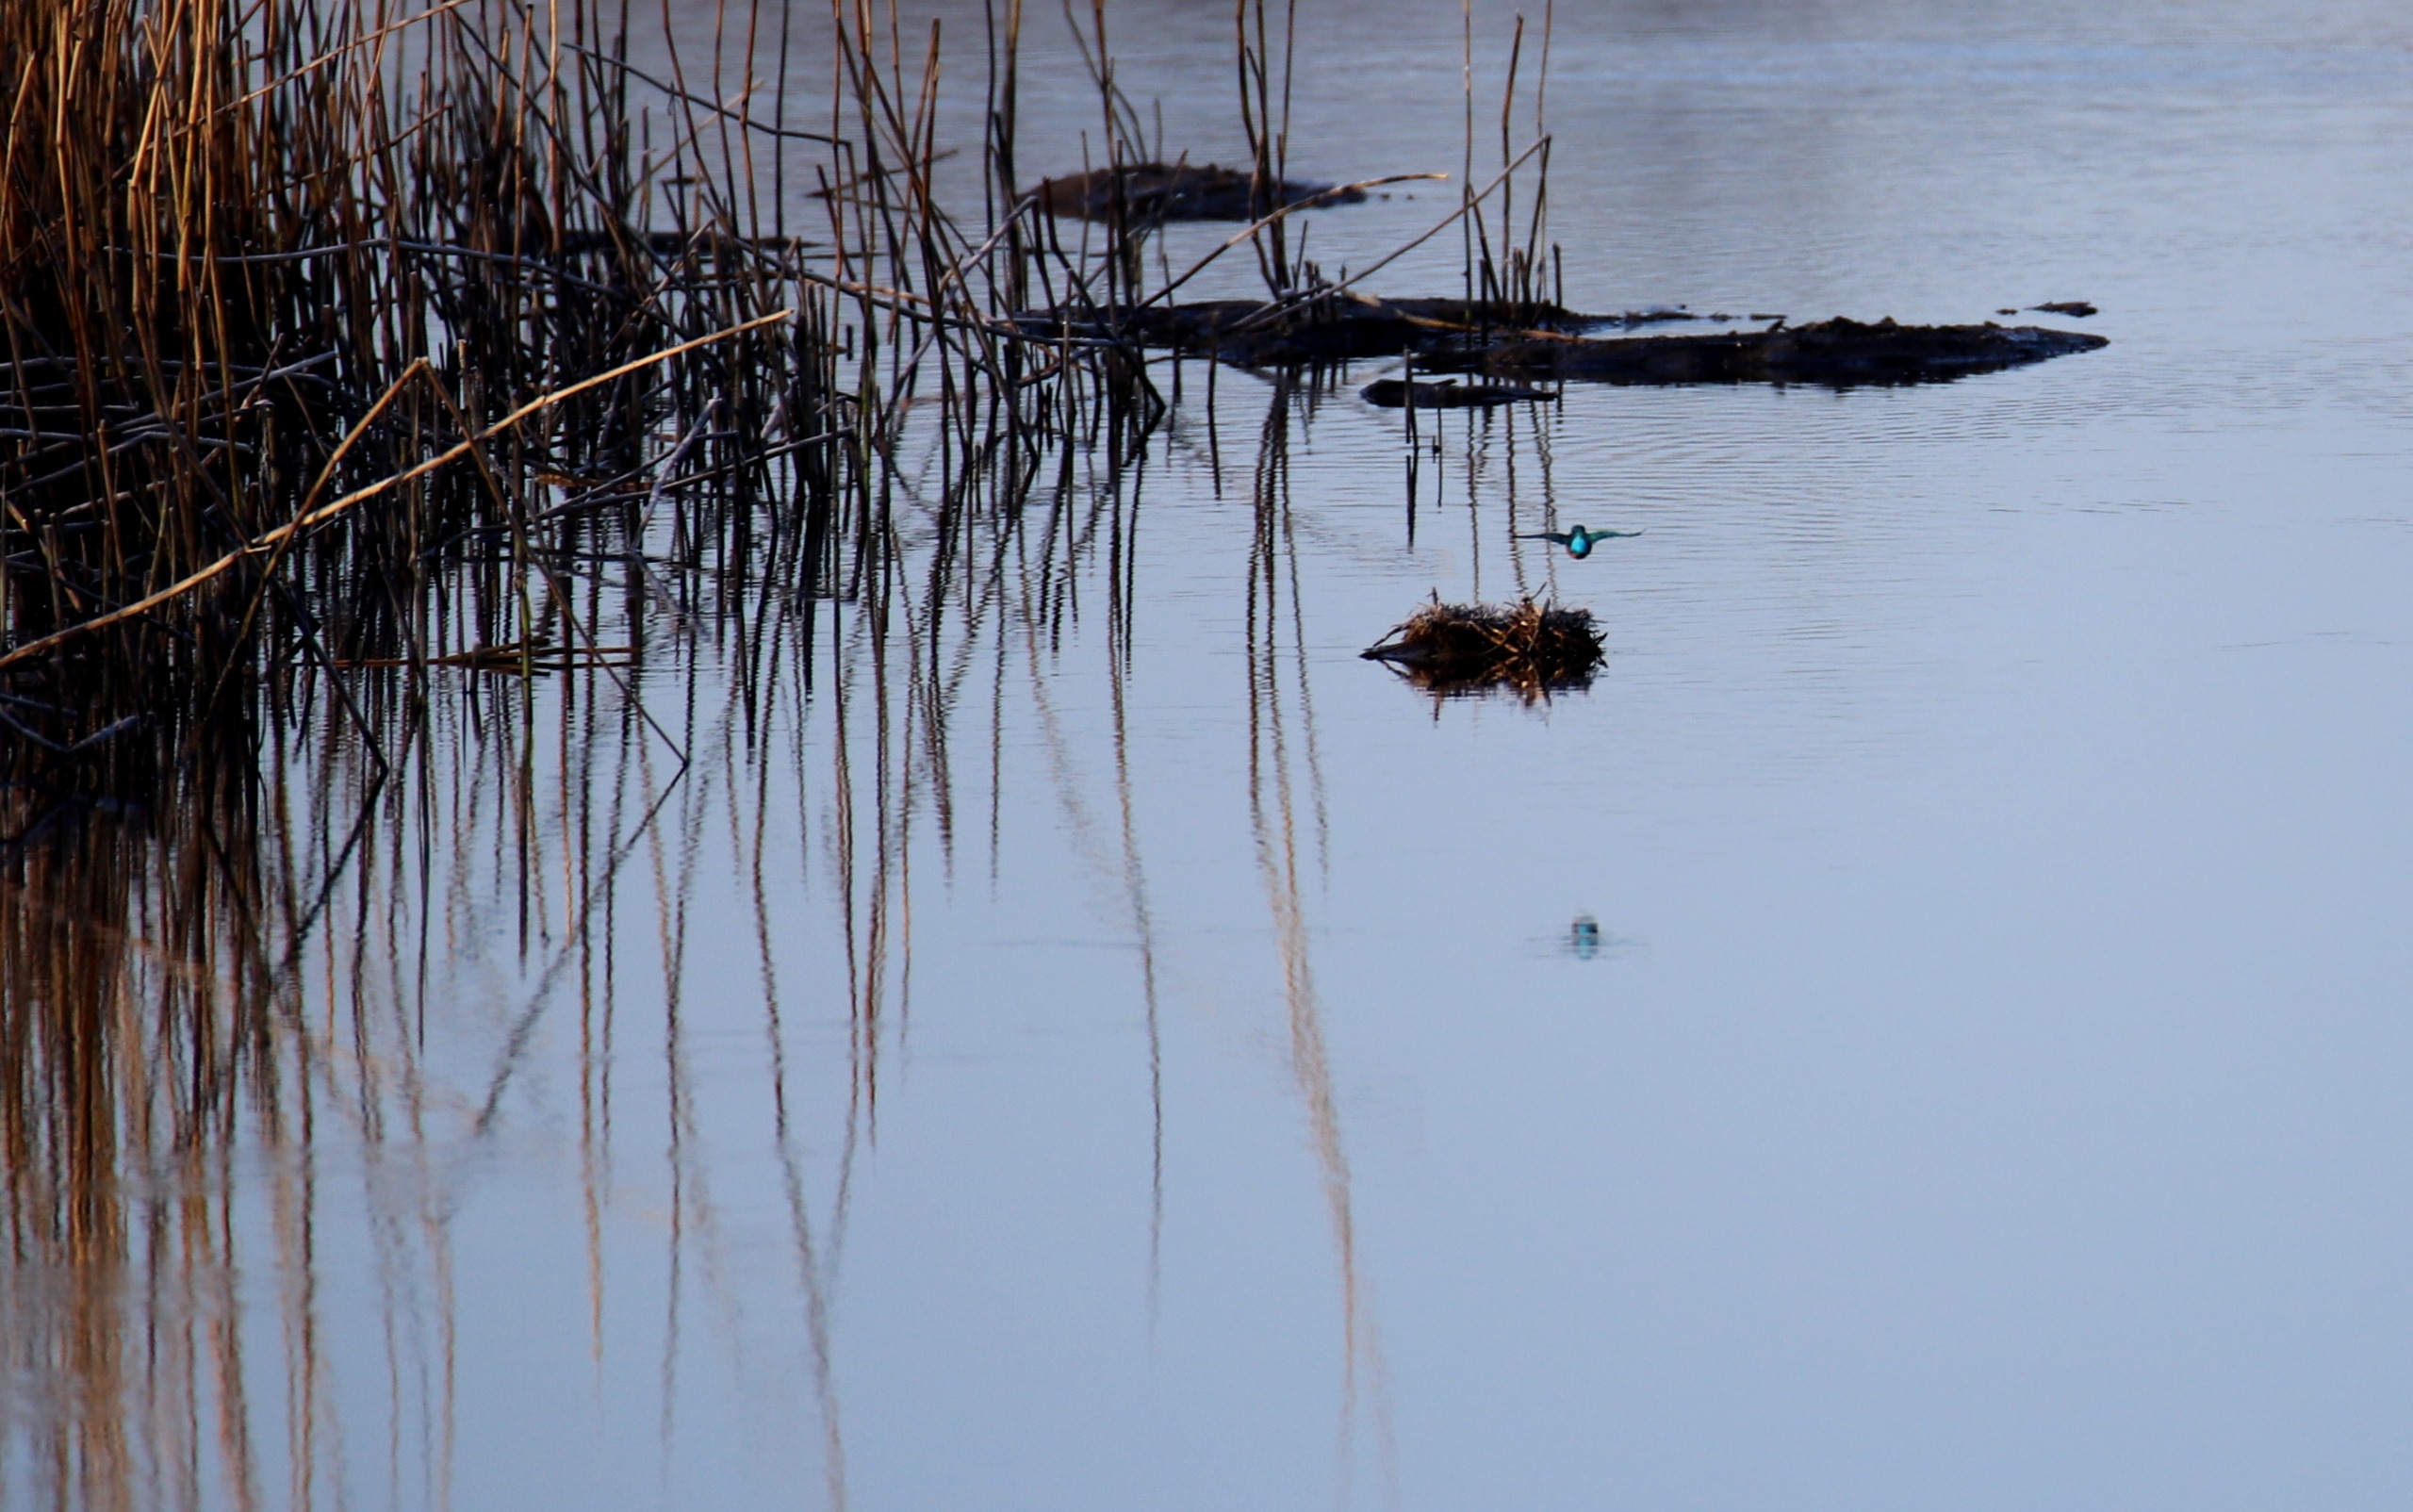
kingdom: Animalia
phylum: Chordata
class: Aves
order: Coraciiformes
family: Alcedinidae
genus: Alcedo
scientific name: Alcedo atthis
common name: Isfugl
